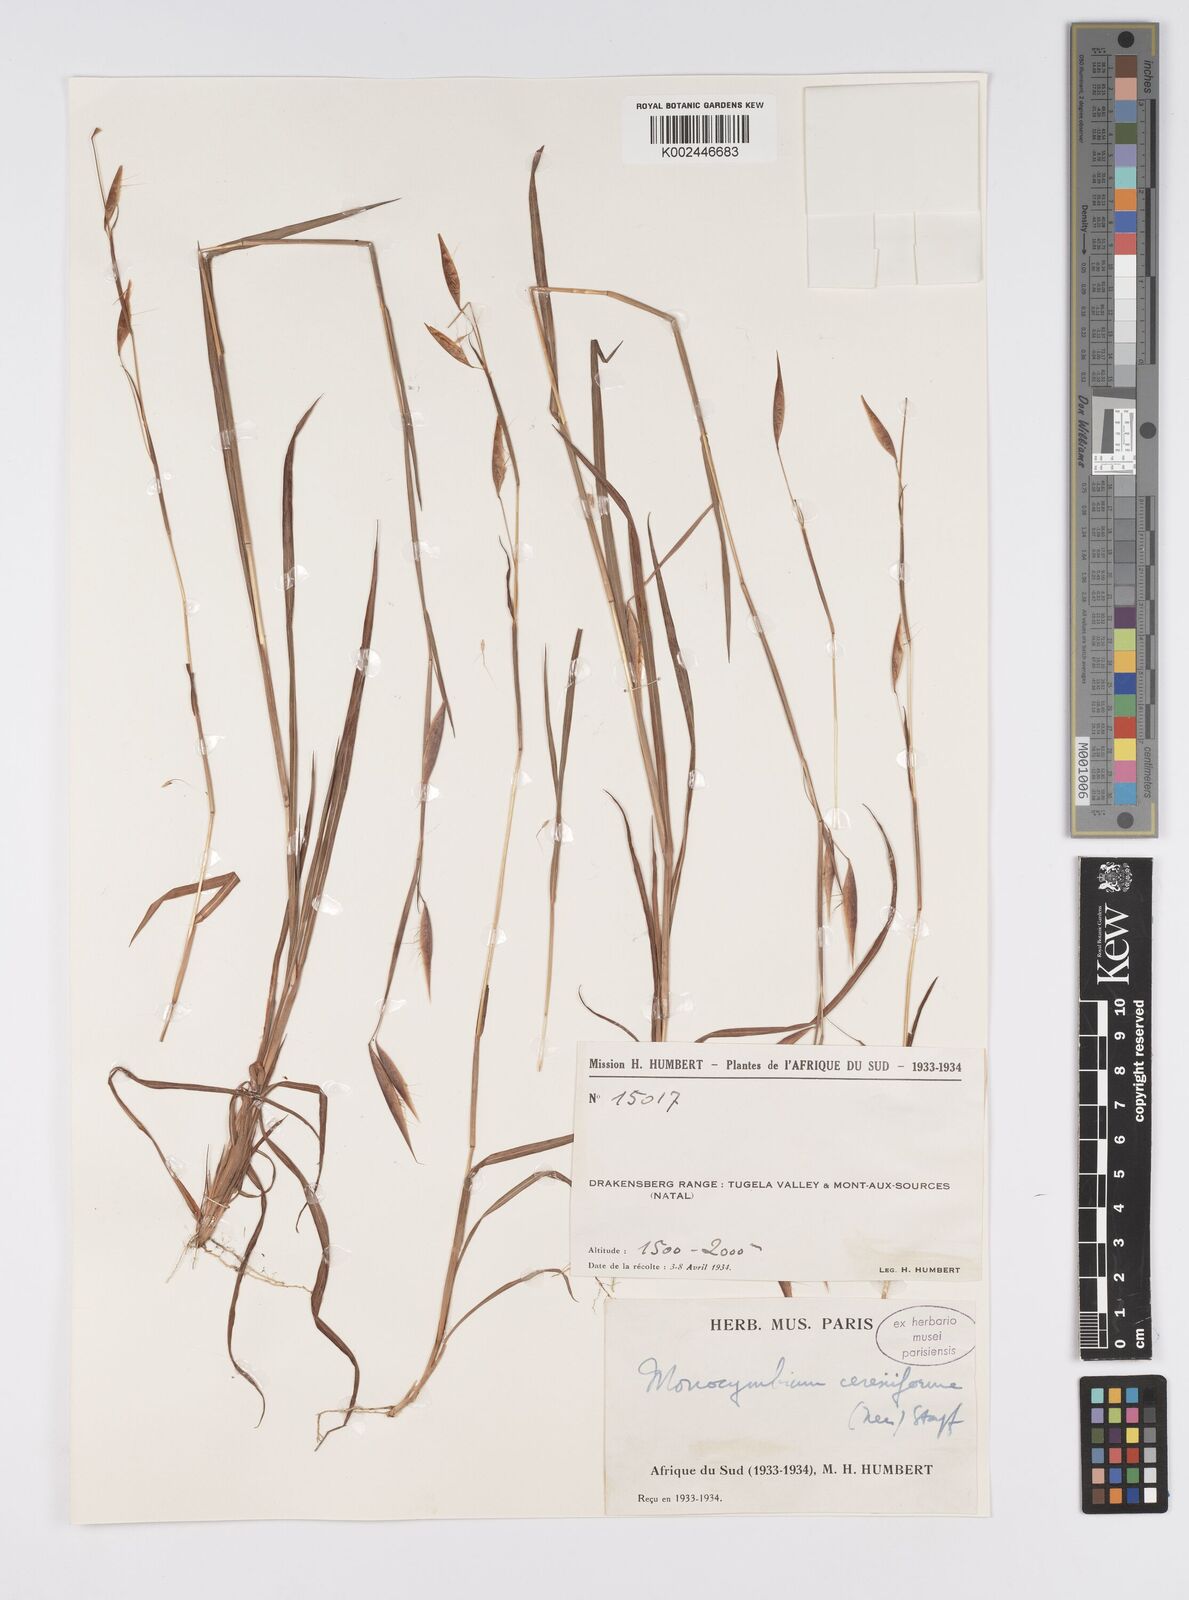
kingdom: Plantae
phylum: Tracheophyta
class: Liliopsida
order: Poales
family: Poaceae
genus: Monocymbium
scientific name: Monocymbium ceresiiforme
